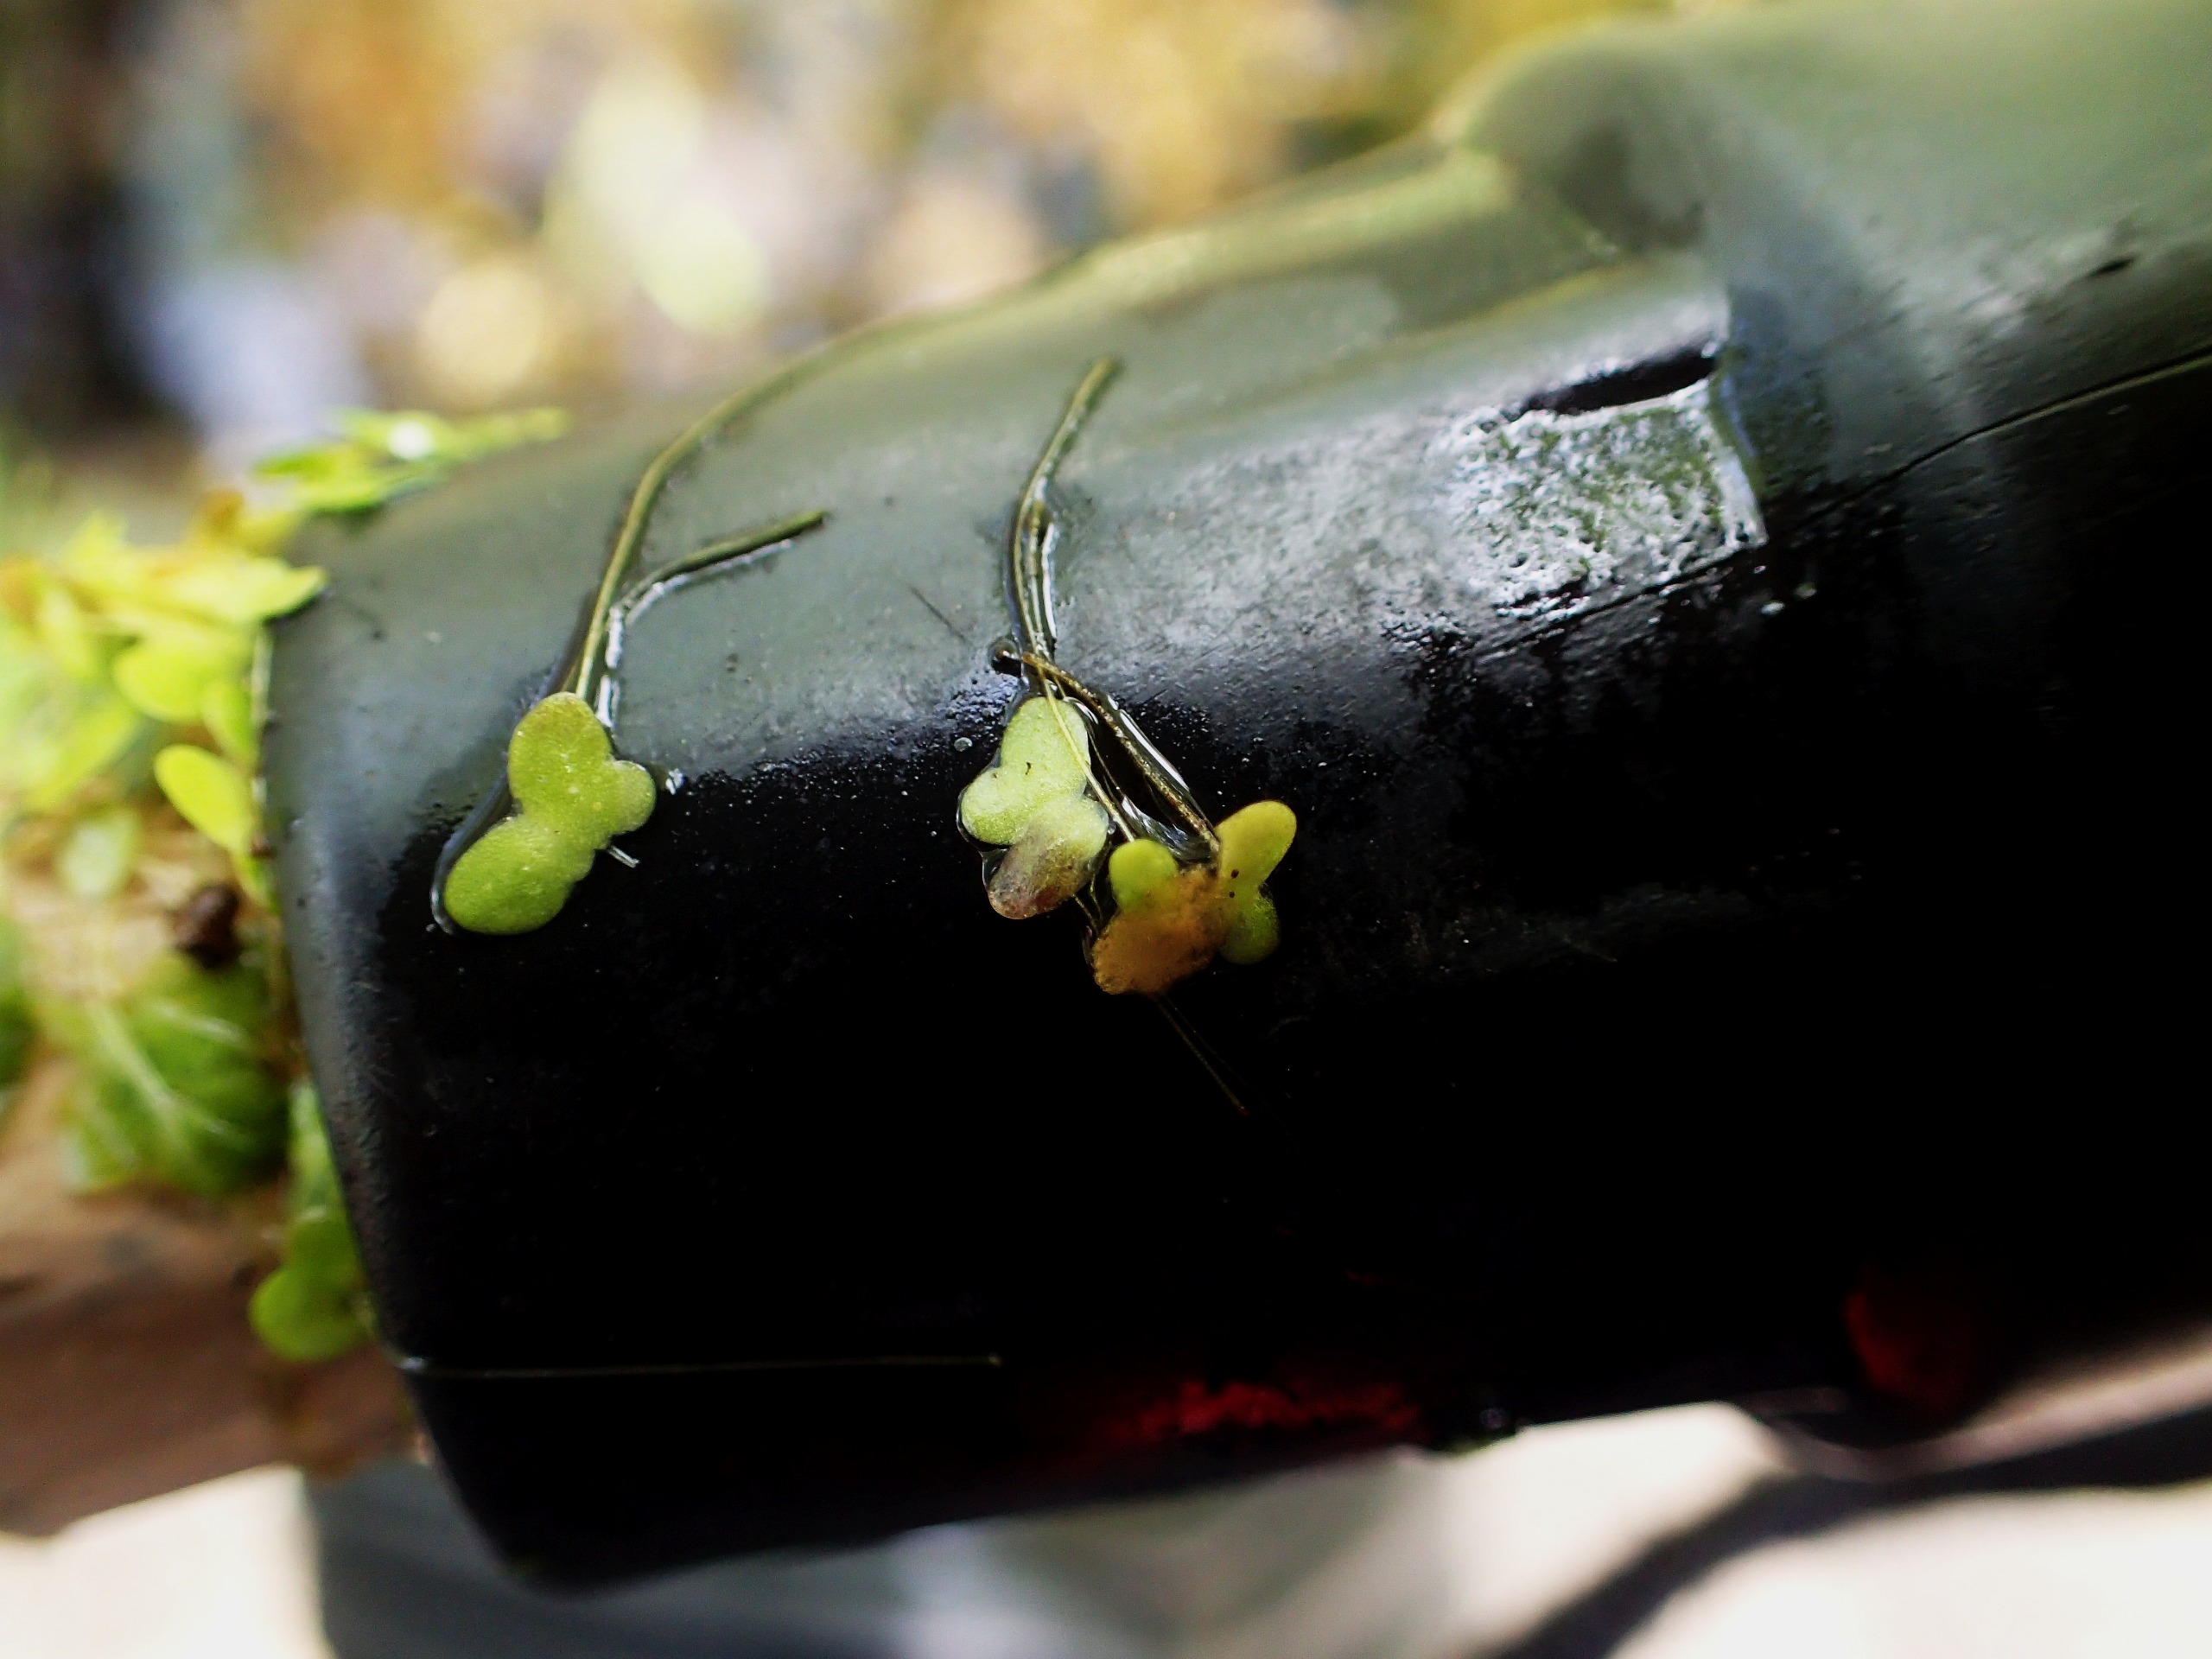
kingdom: Plantae
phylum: Tracheophyta
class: Liliopsida
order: Alismatales
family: Araceae
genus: Lemna
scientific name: Lemna minor
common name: Liden andemad
